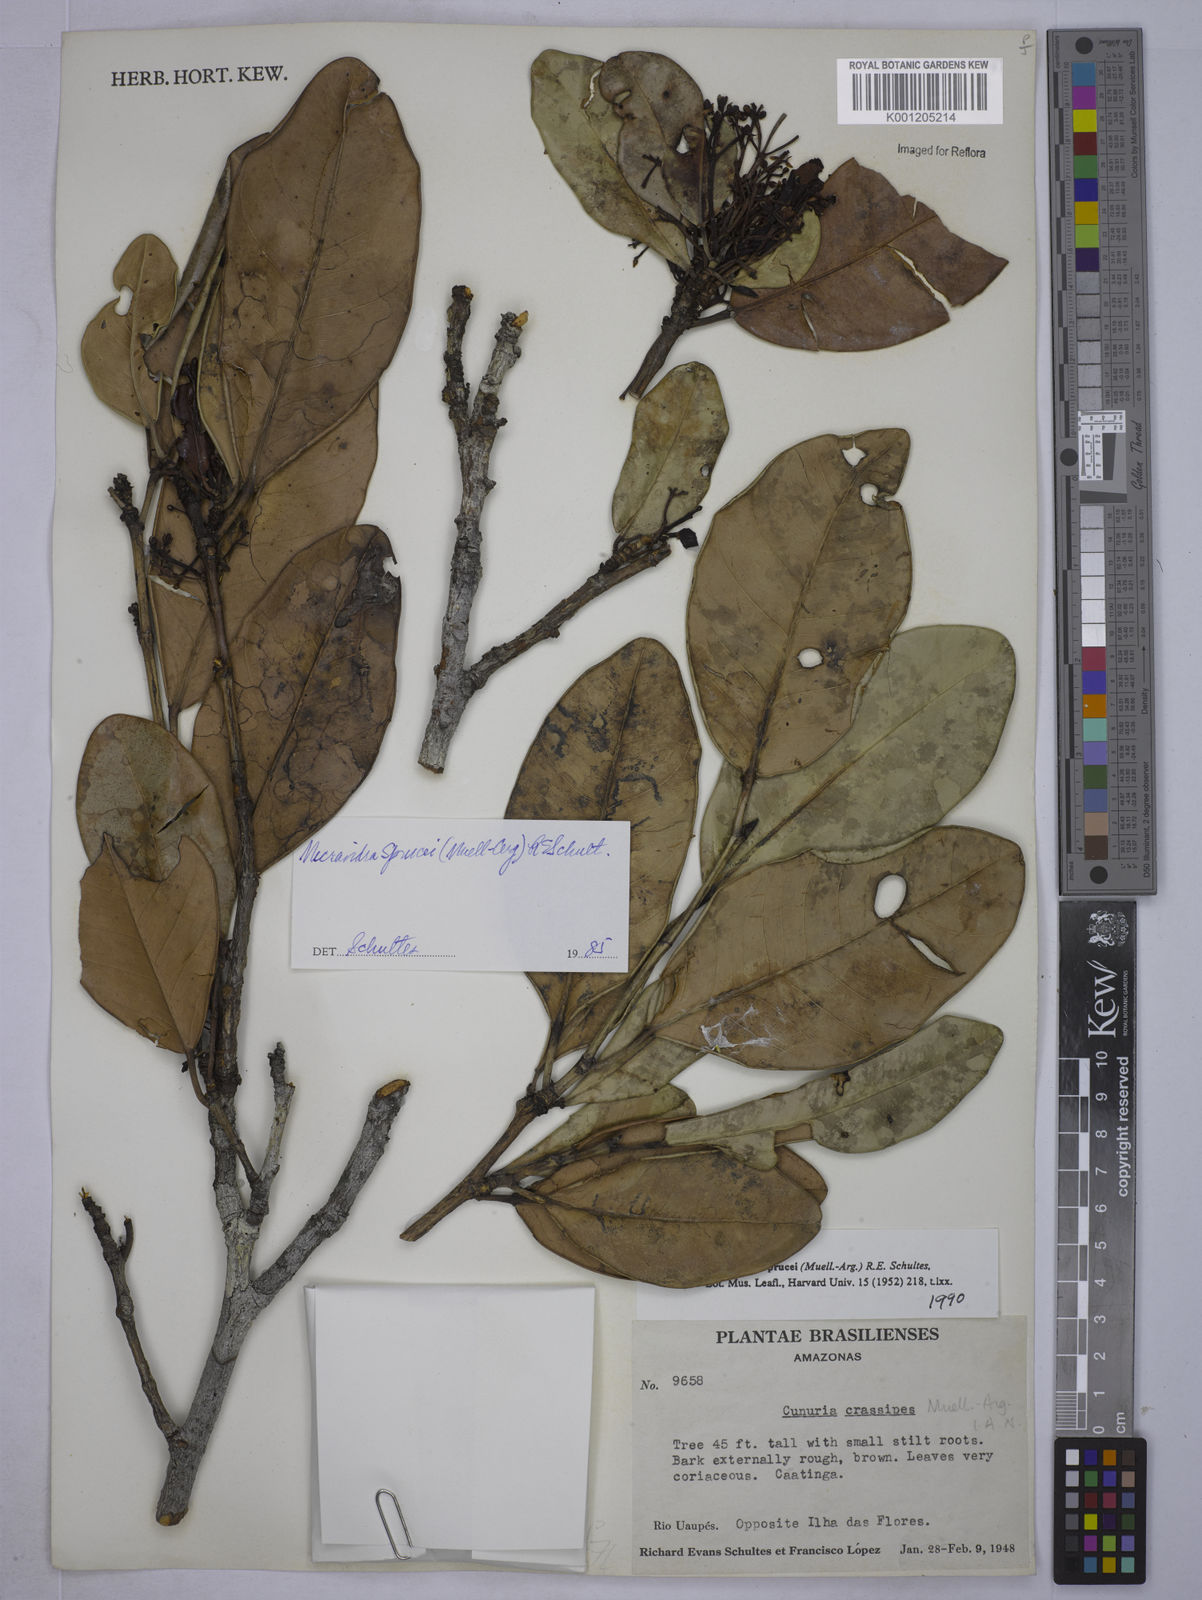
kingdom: Plantae
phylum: Tracheophyta
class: Magnoliopsida
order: Malpighiales
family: Euphorbiaceae
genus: Micrandra
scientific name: Micrandra
